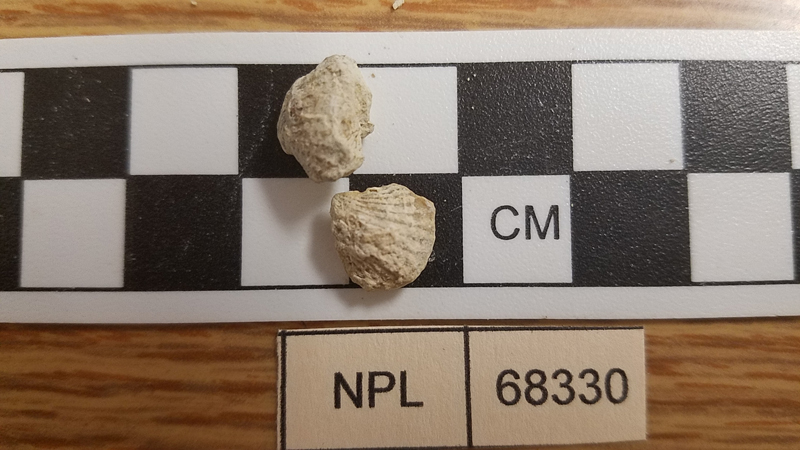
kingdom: Animalia
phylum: Mollusca
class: Bivalvia
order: Cardiida
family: Cardiidae
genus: Granocardium
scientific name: Granocardium
